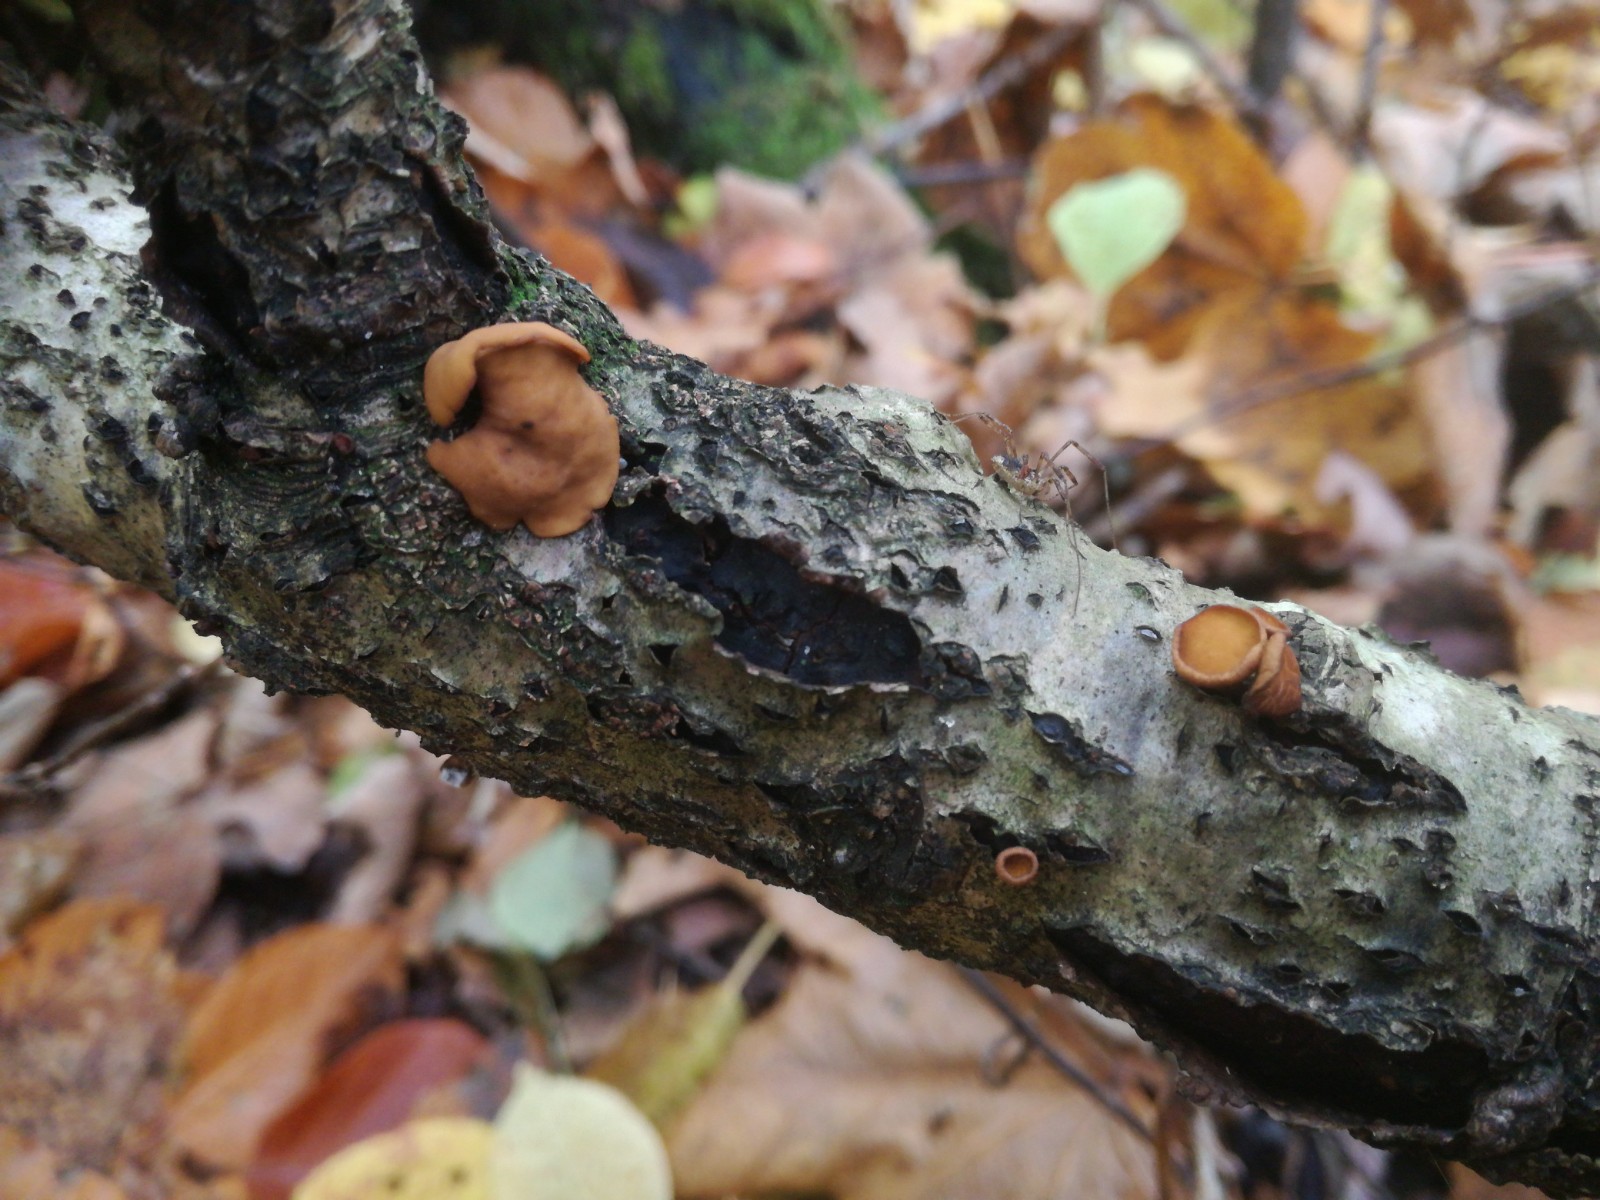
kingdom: Fungi
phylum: Ascomycota
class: Leotiomycetes
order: Helotiales
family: Rutstroemiaceae
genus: Rutstroemia
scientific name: Rutstroemia firma
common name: gren-brunskive
